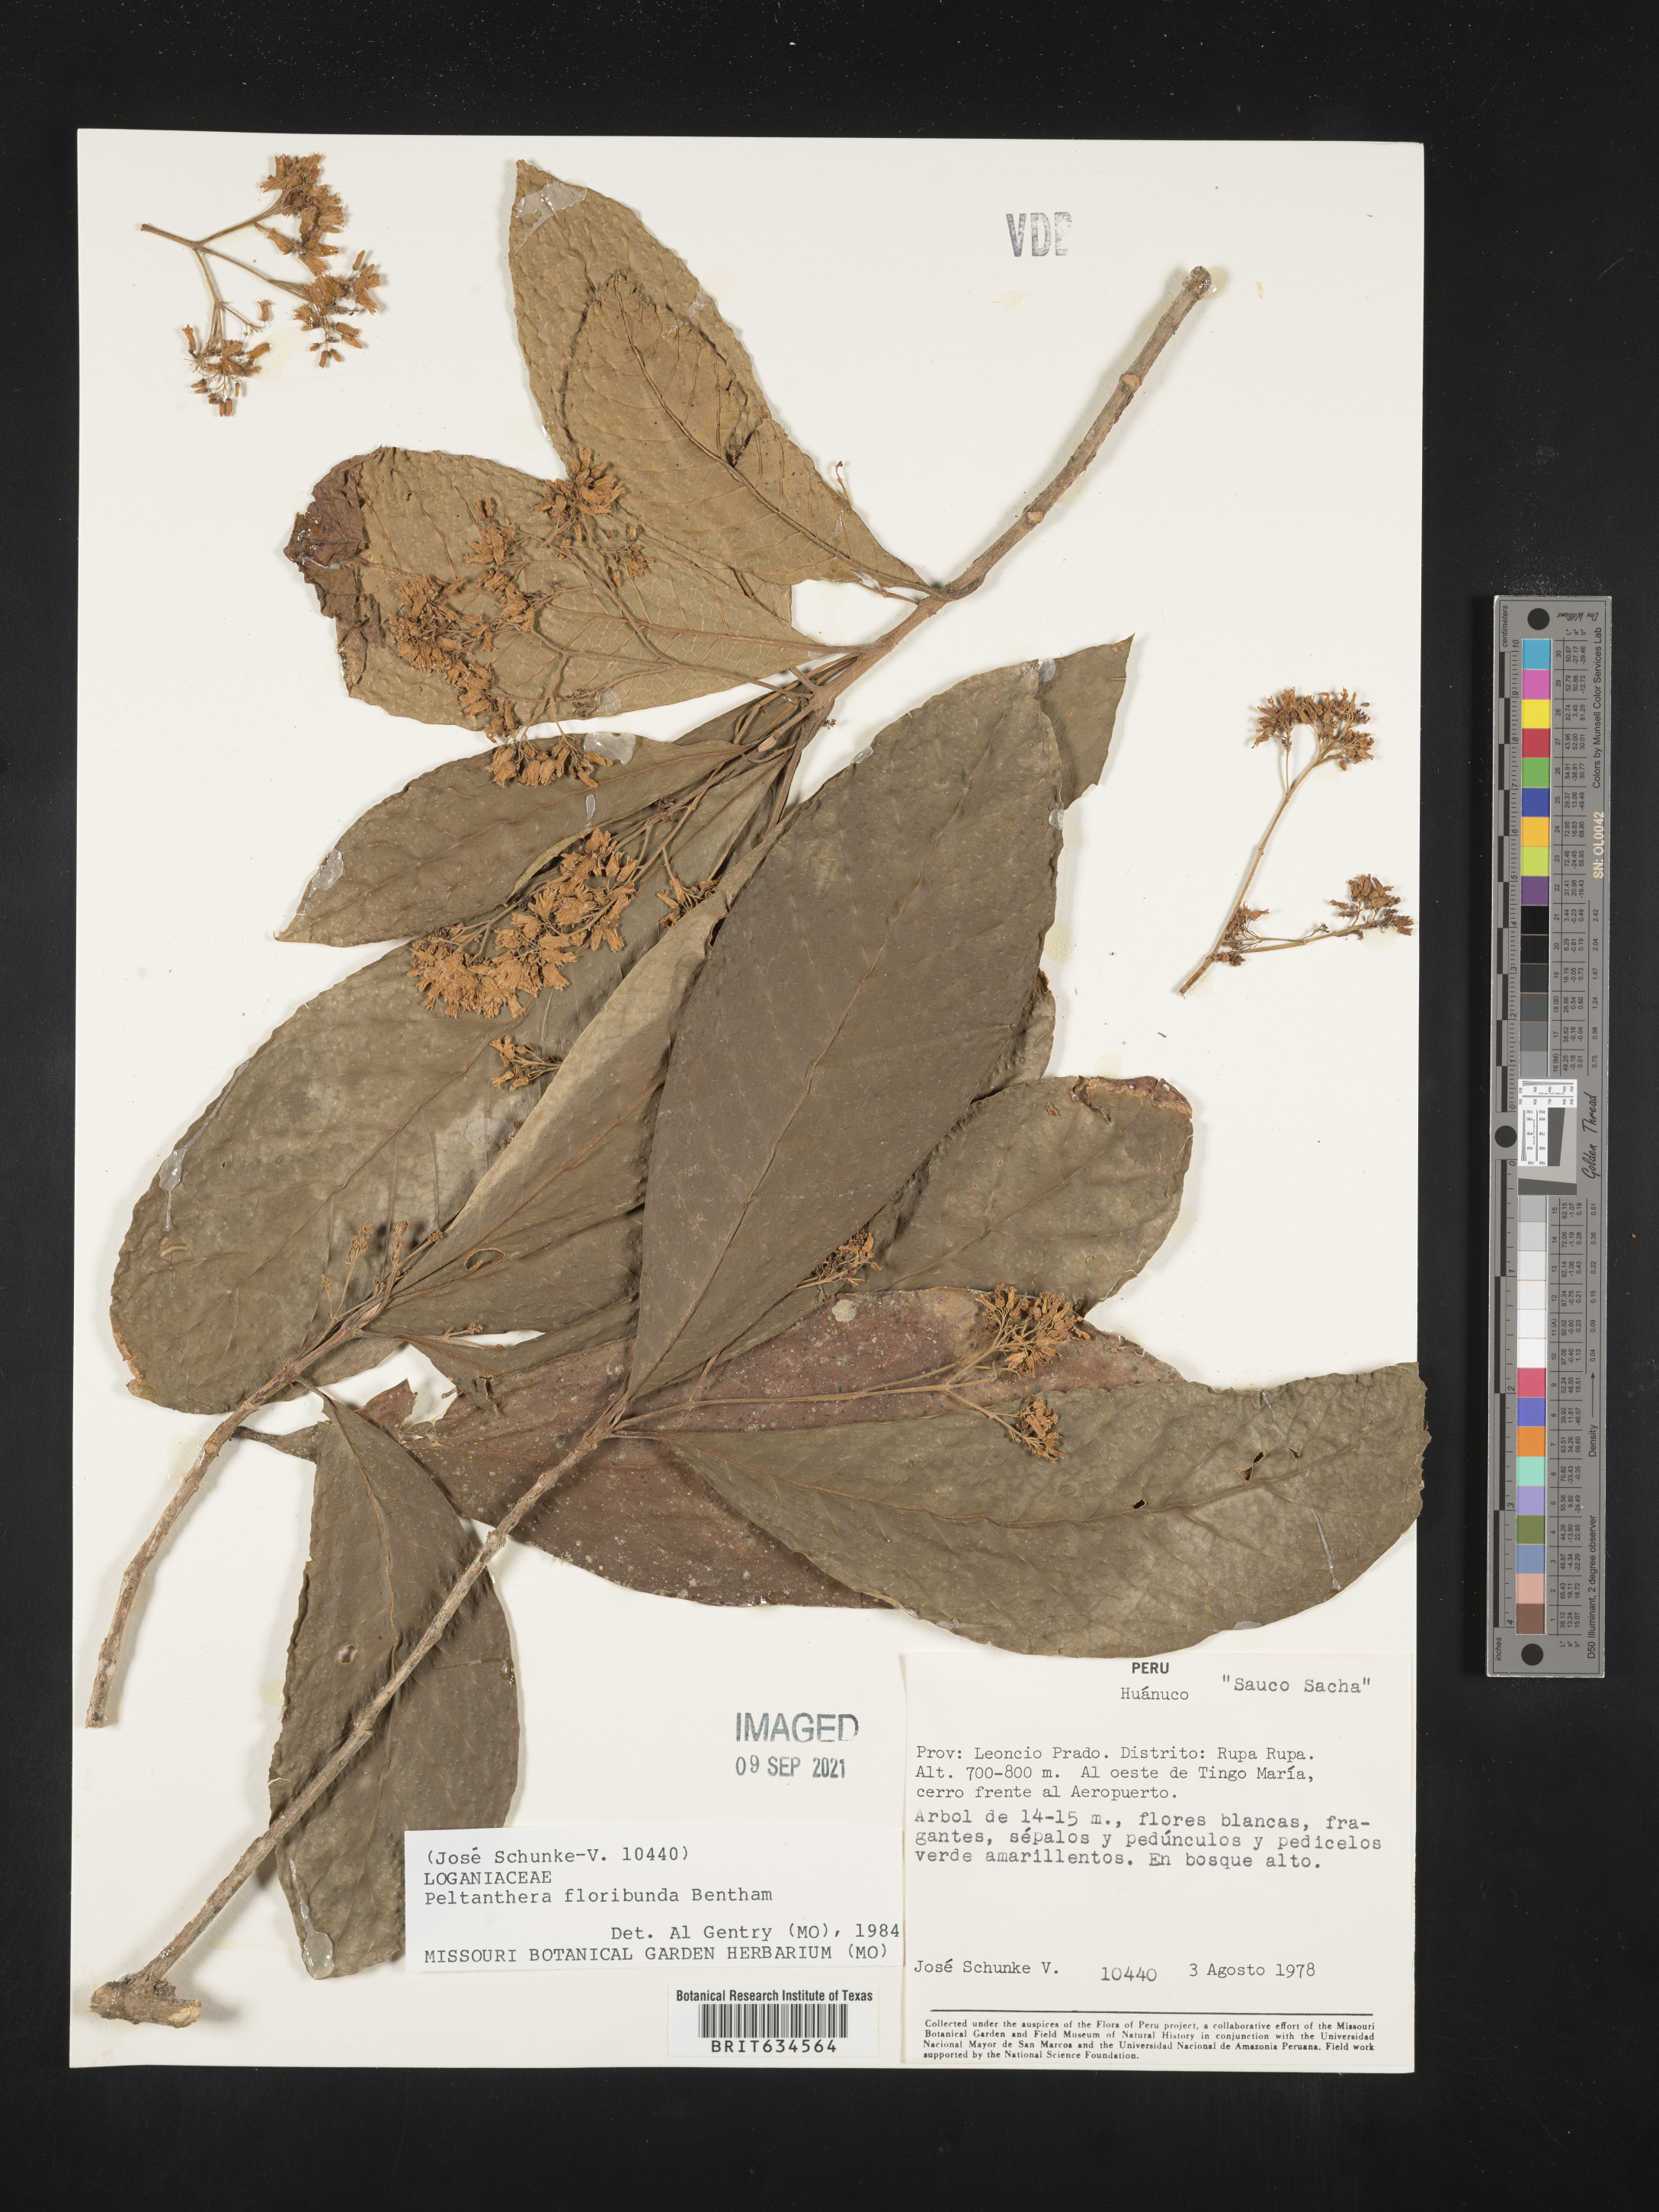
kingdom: Plantae
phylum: Tracheophyta
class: Magnoliopsida
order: Lamiales
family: Peltantheraceae
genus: Peltanthera
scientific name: Peltanthera
